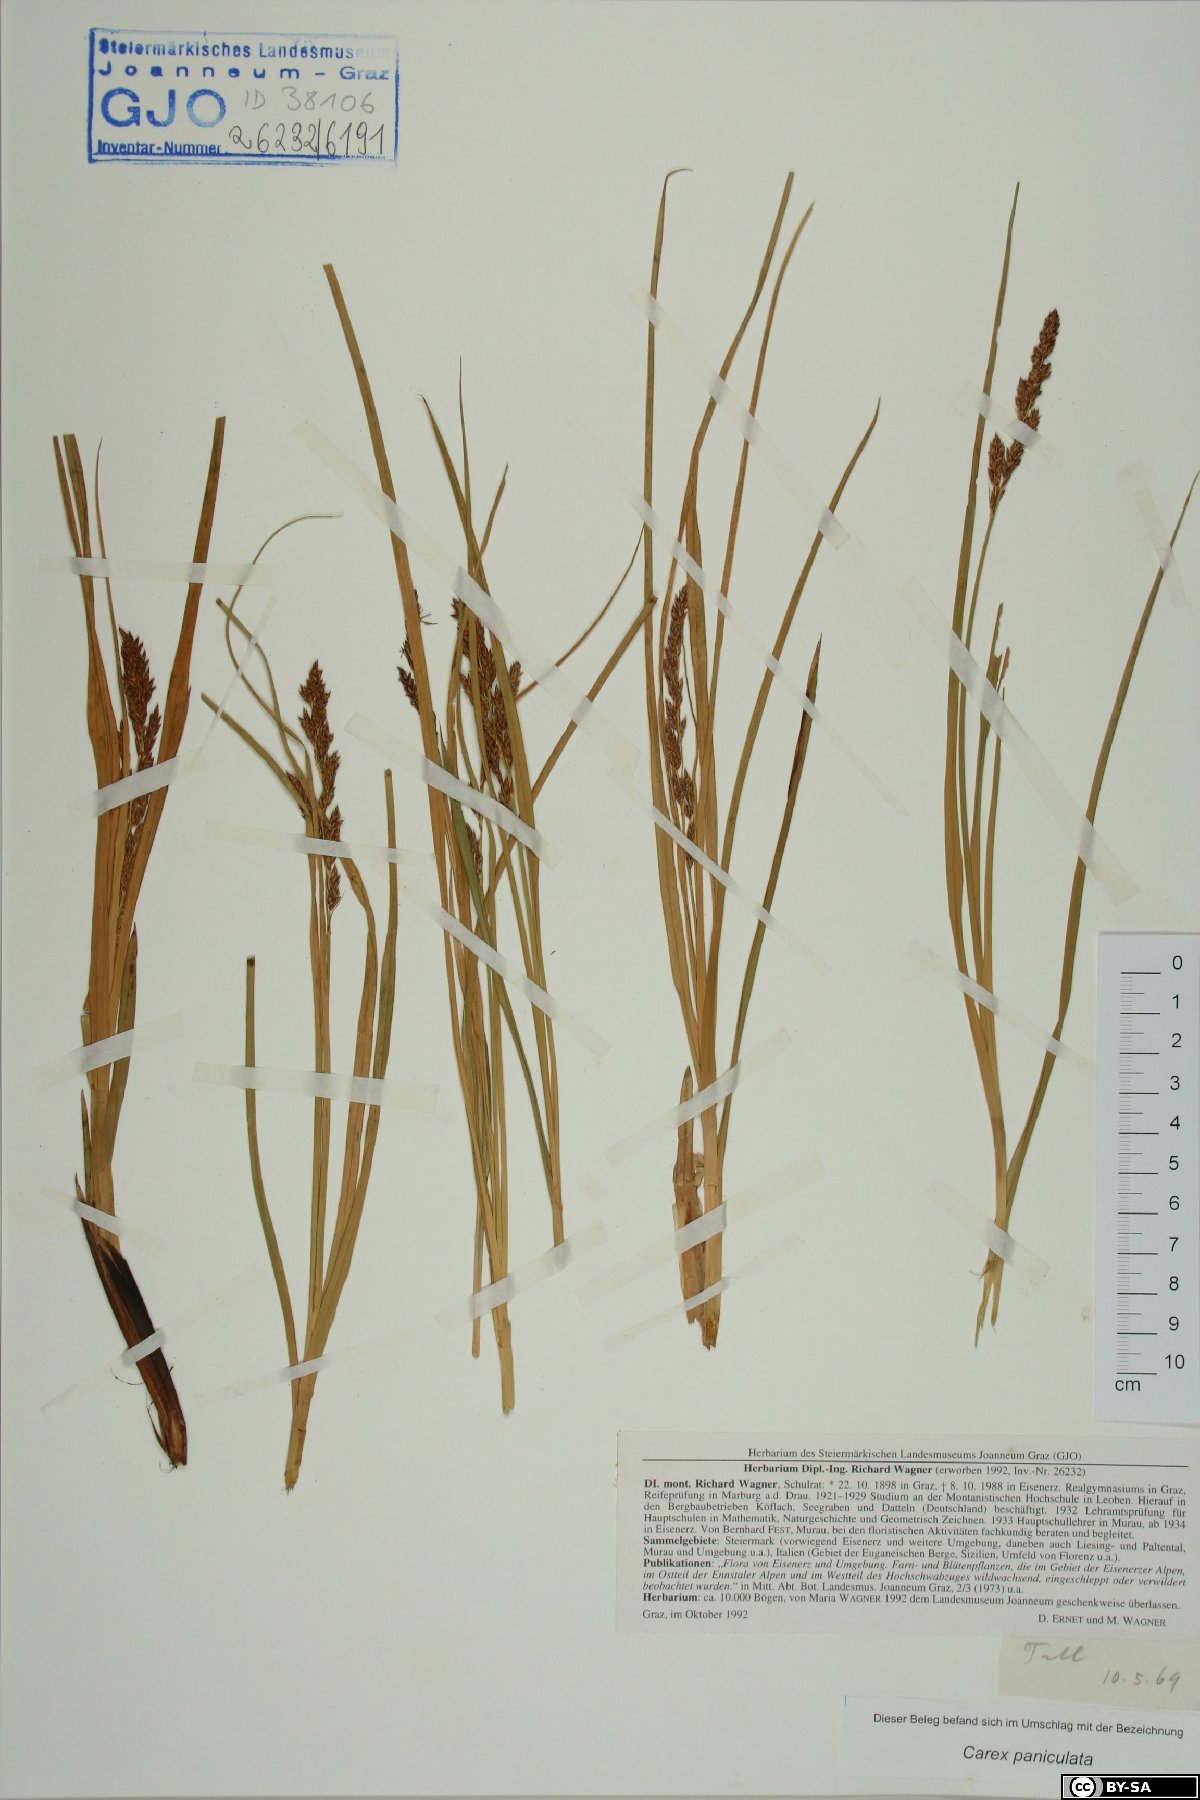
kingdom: Plantae
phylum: Tracheophyta
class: Liliopsida
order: Poales
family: Cyperaceae
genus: Carex
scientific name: Carex paniculata
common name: Greater tussock-sedge
